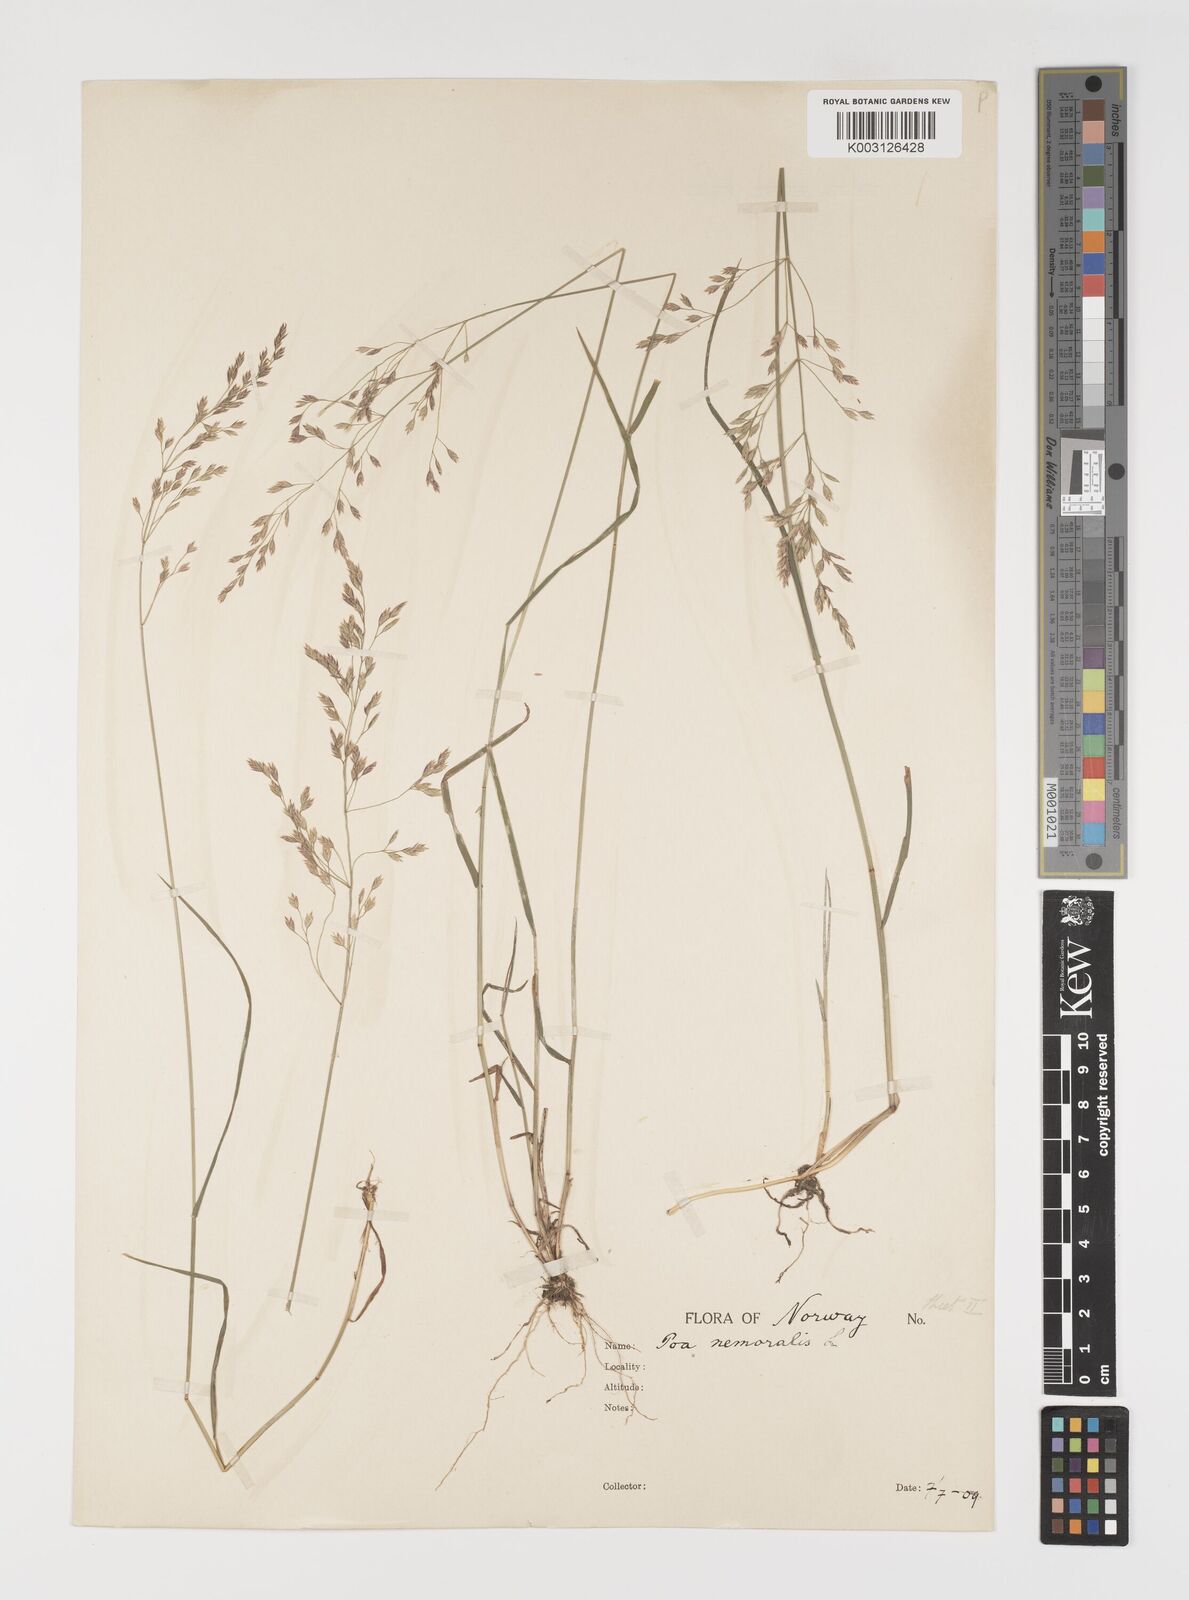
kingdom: Plantae
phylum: Tracheophyta
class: Liliopsida
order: Poales
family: Poaceae
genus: Poa
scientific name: Poa nemoralis
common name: Wood bluegrass
